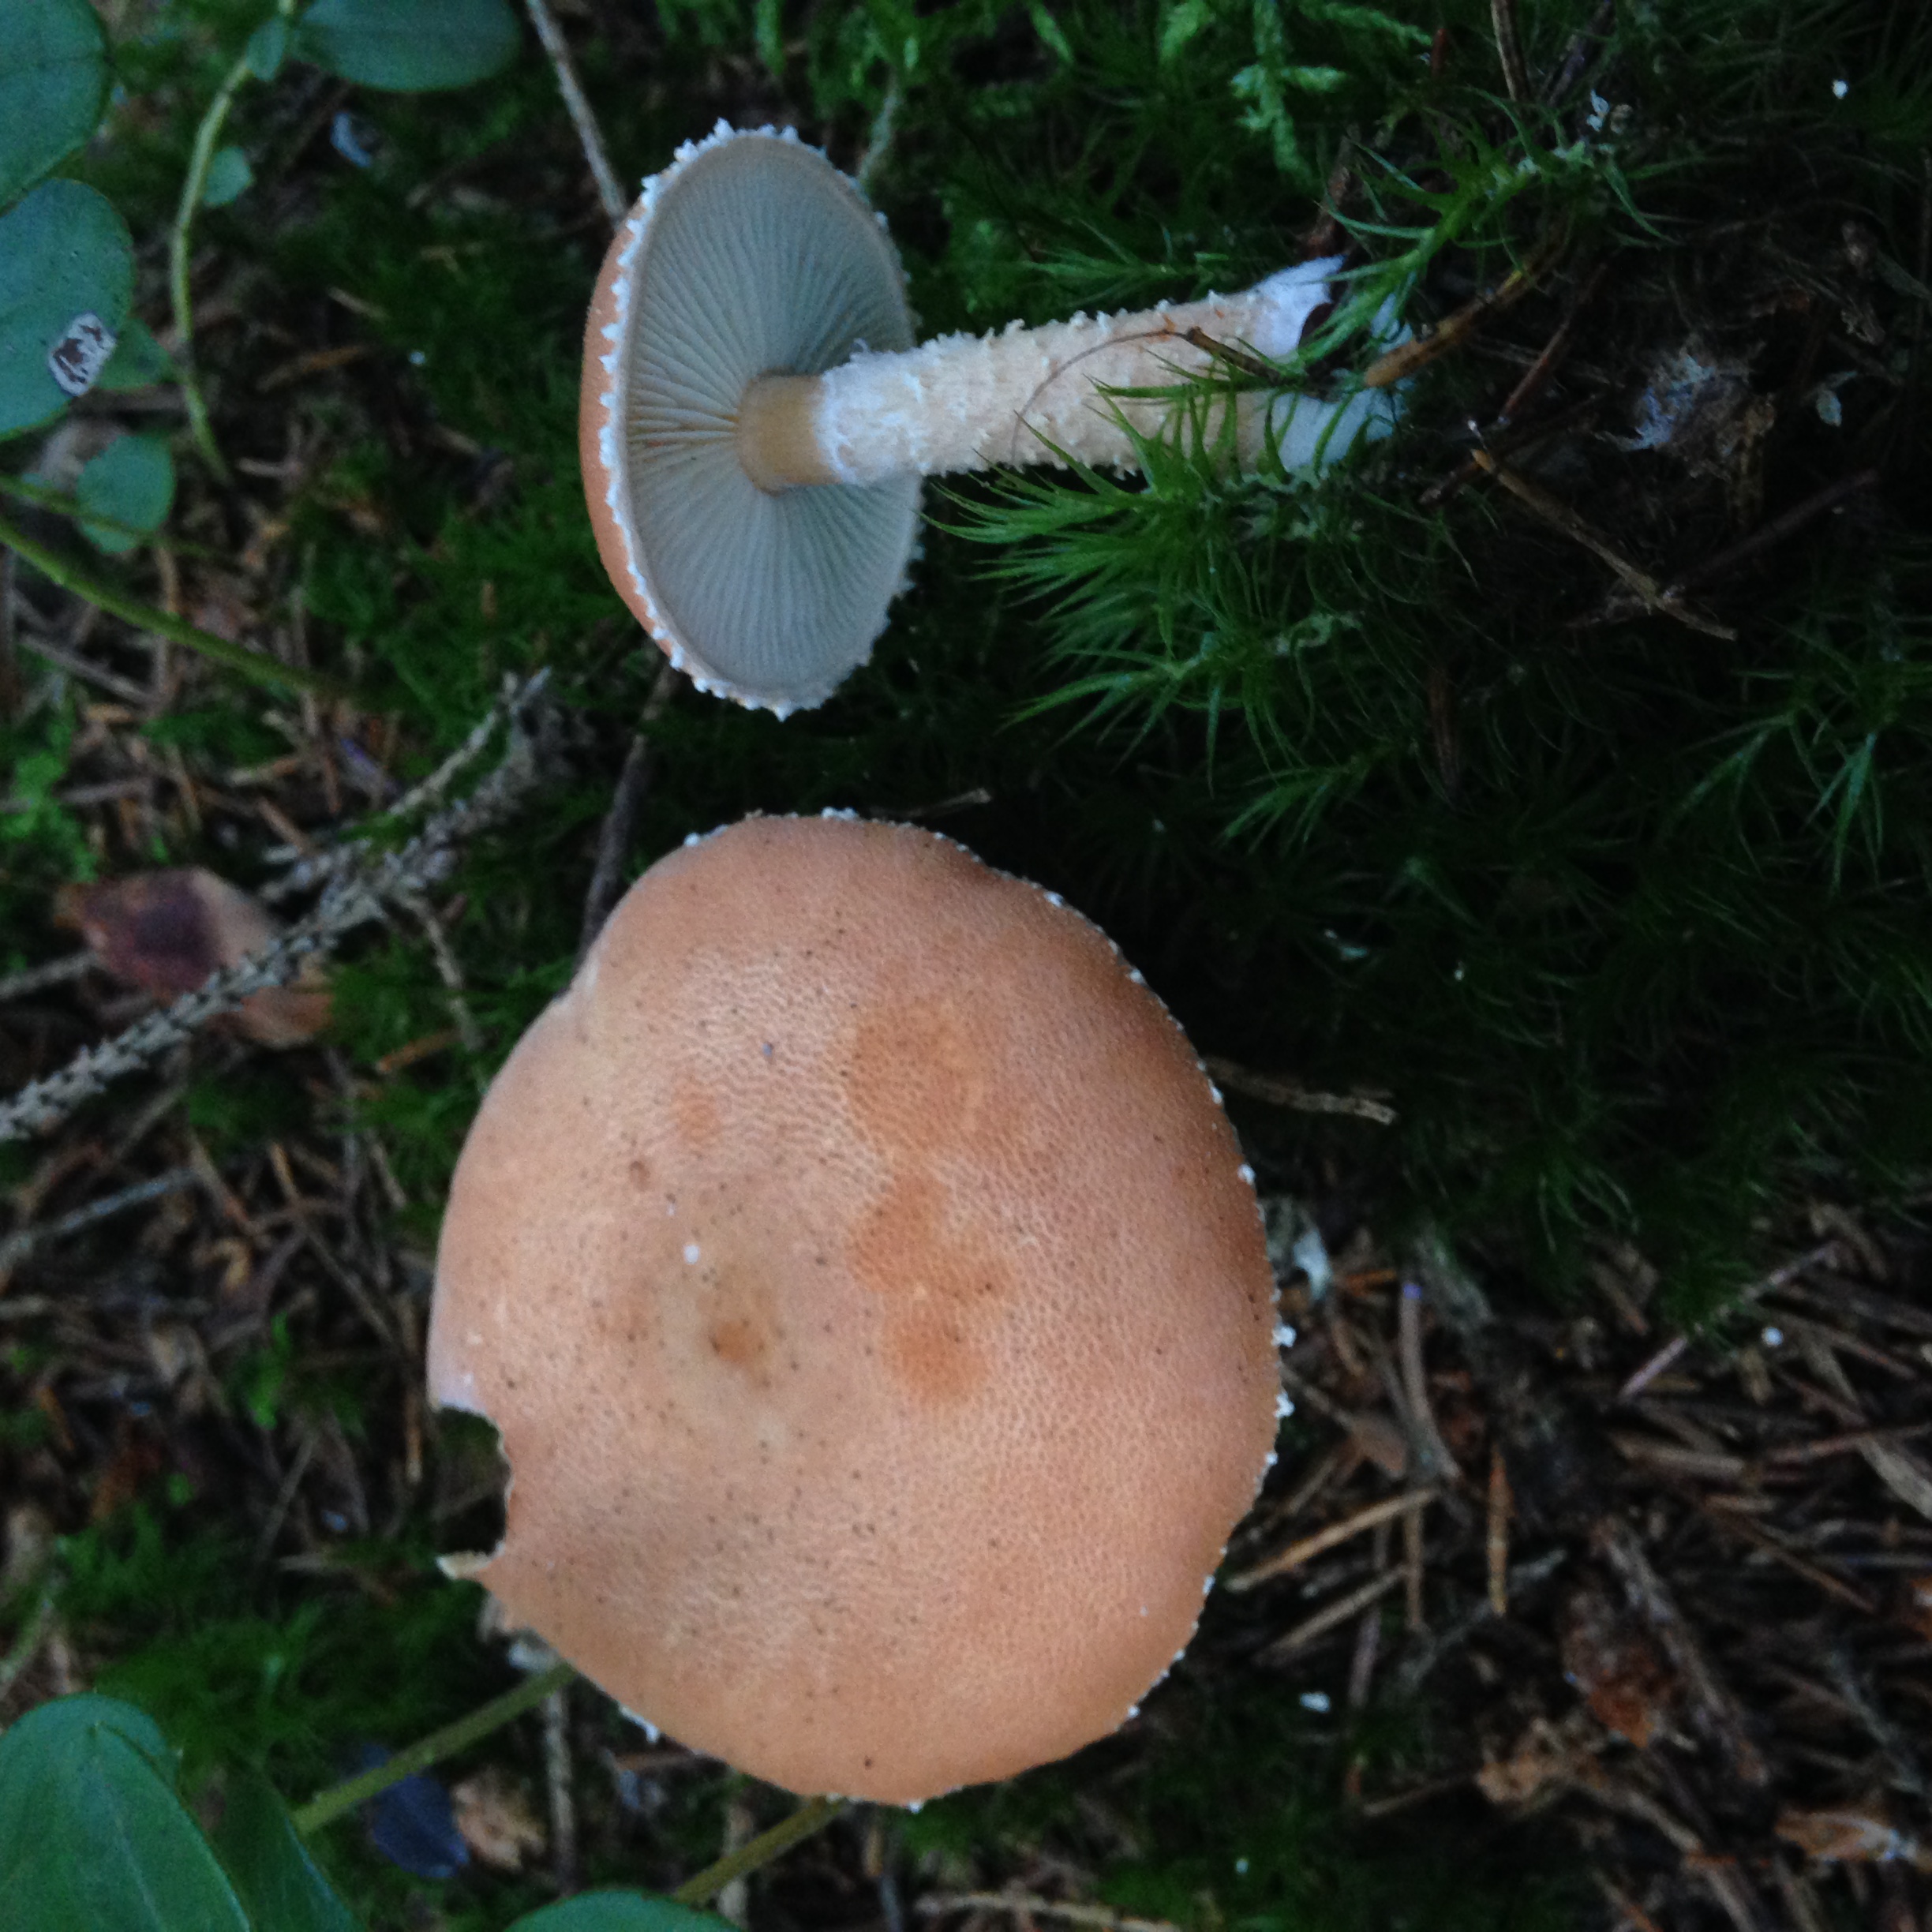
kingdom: Fungi
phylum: Basidiomycota
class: Agaricomycetes
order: Agaricales
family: Agaricaceae
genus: Cystodermella
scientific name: Cystodermella adnatifolia
